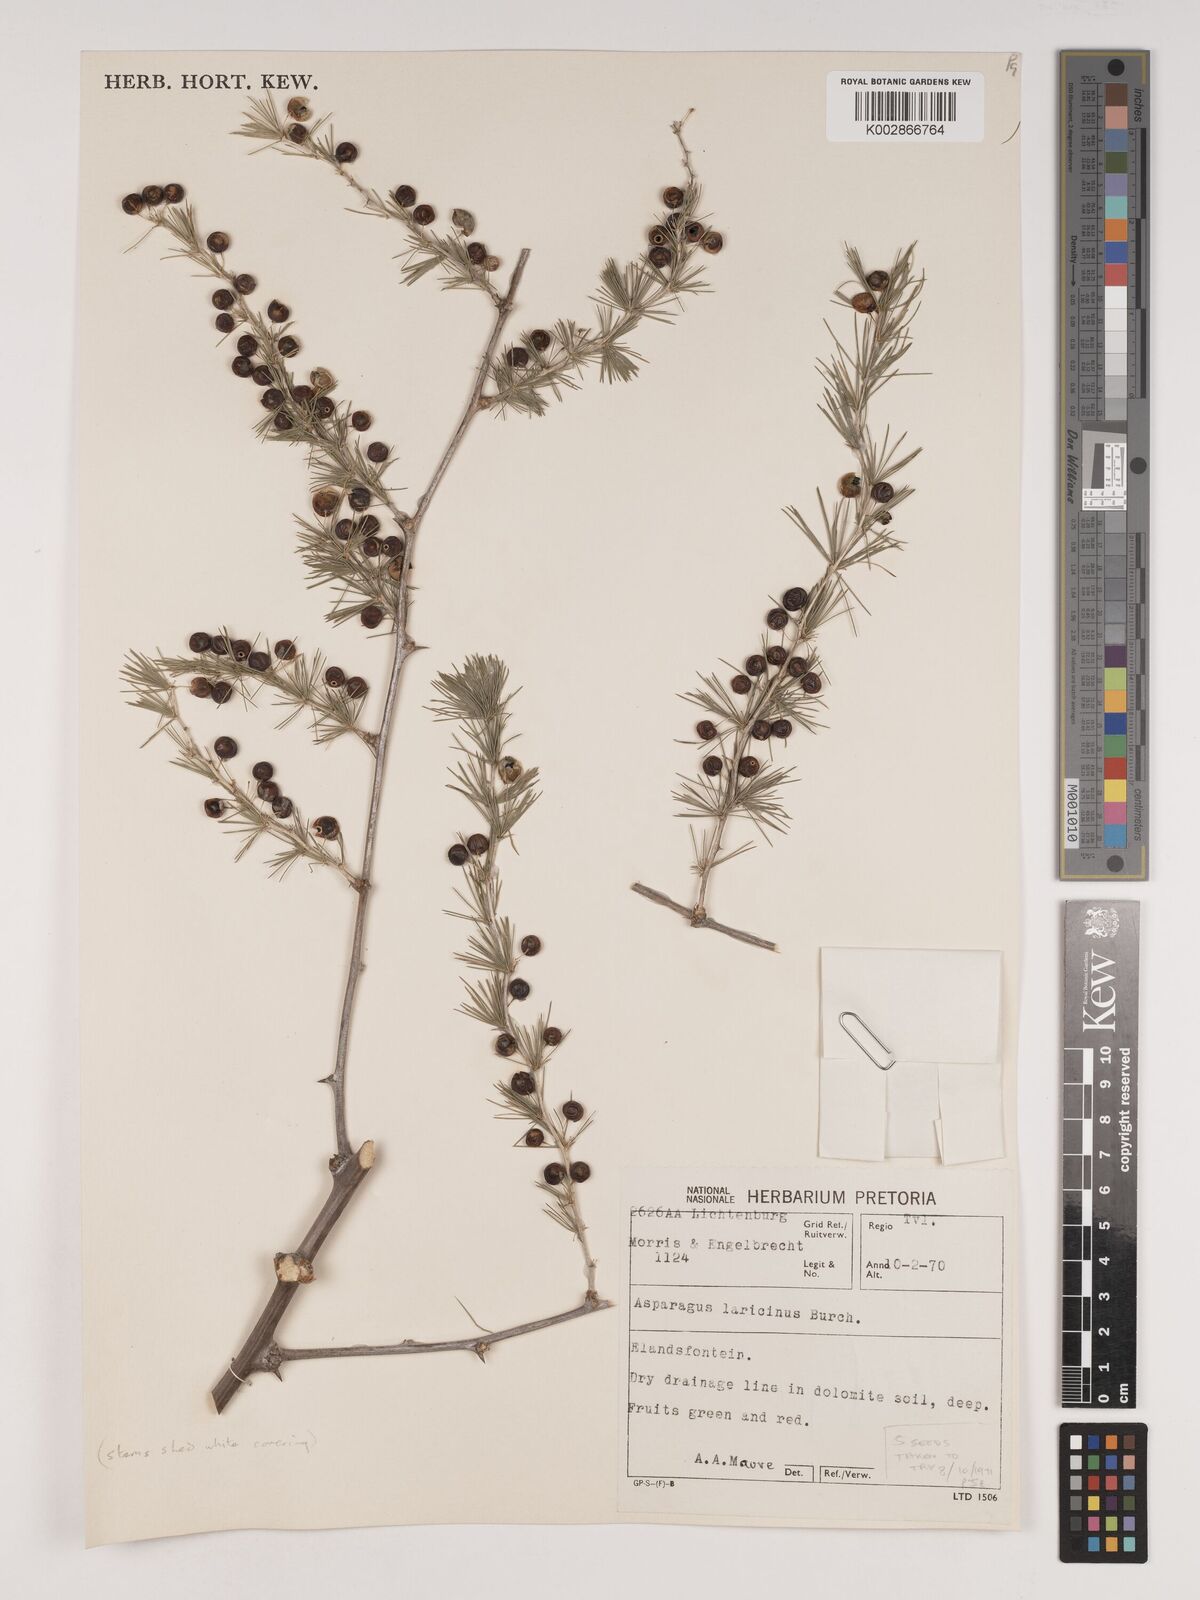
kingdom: Plantae
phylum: Tracheophyta
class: Liliopsida
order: Asparagales
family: Asparagaceae
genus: Asparagus
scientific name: Asparagus laricinus
